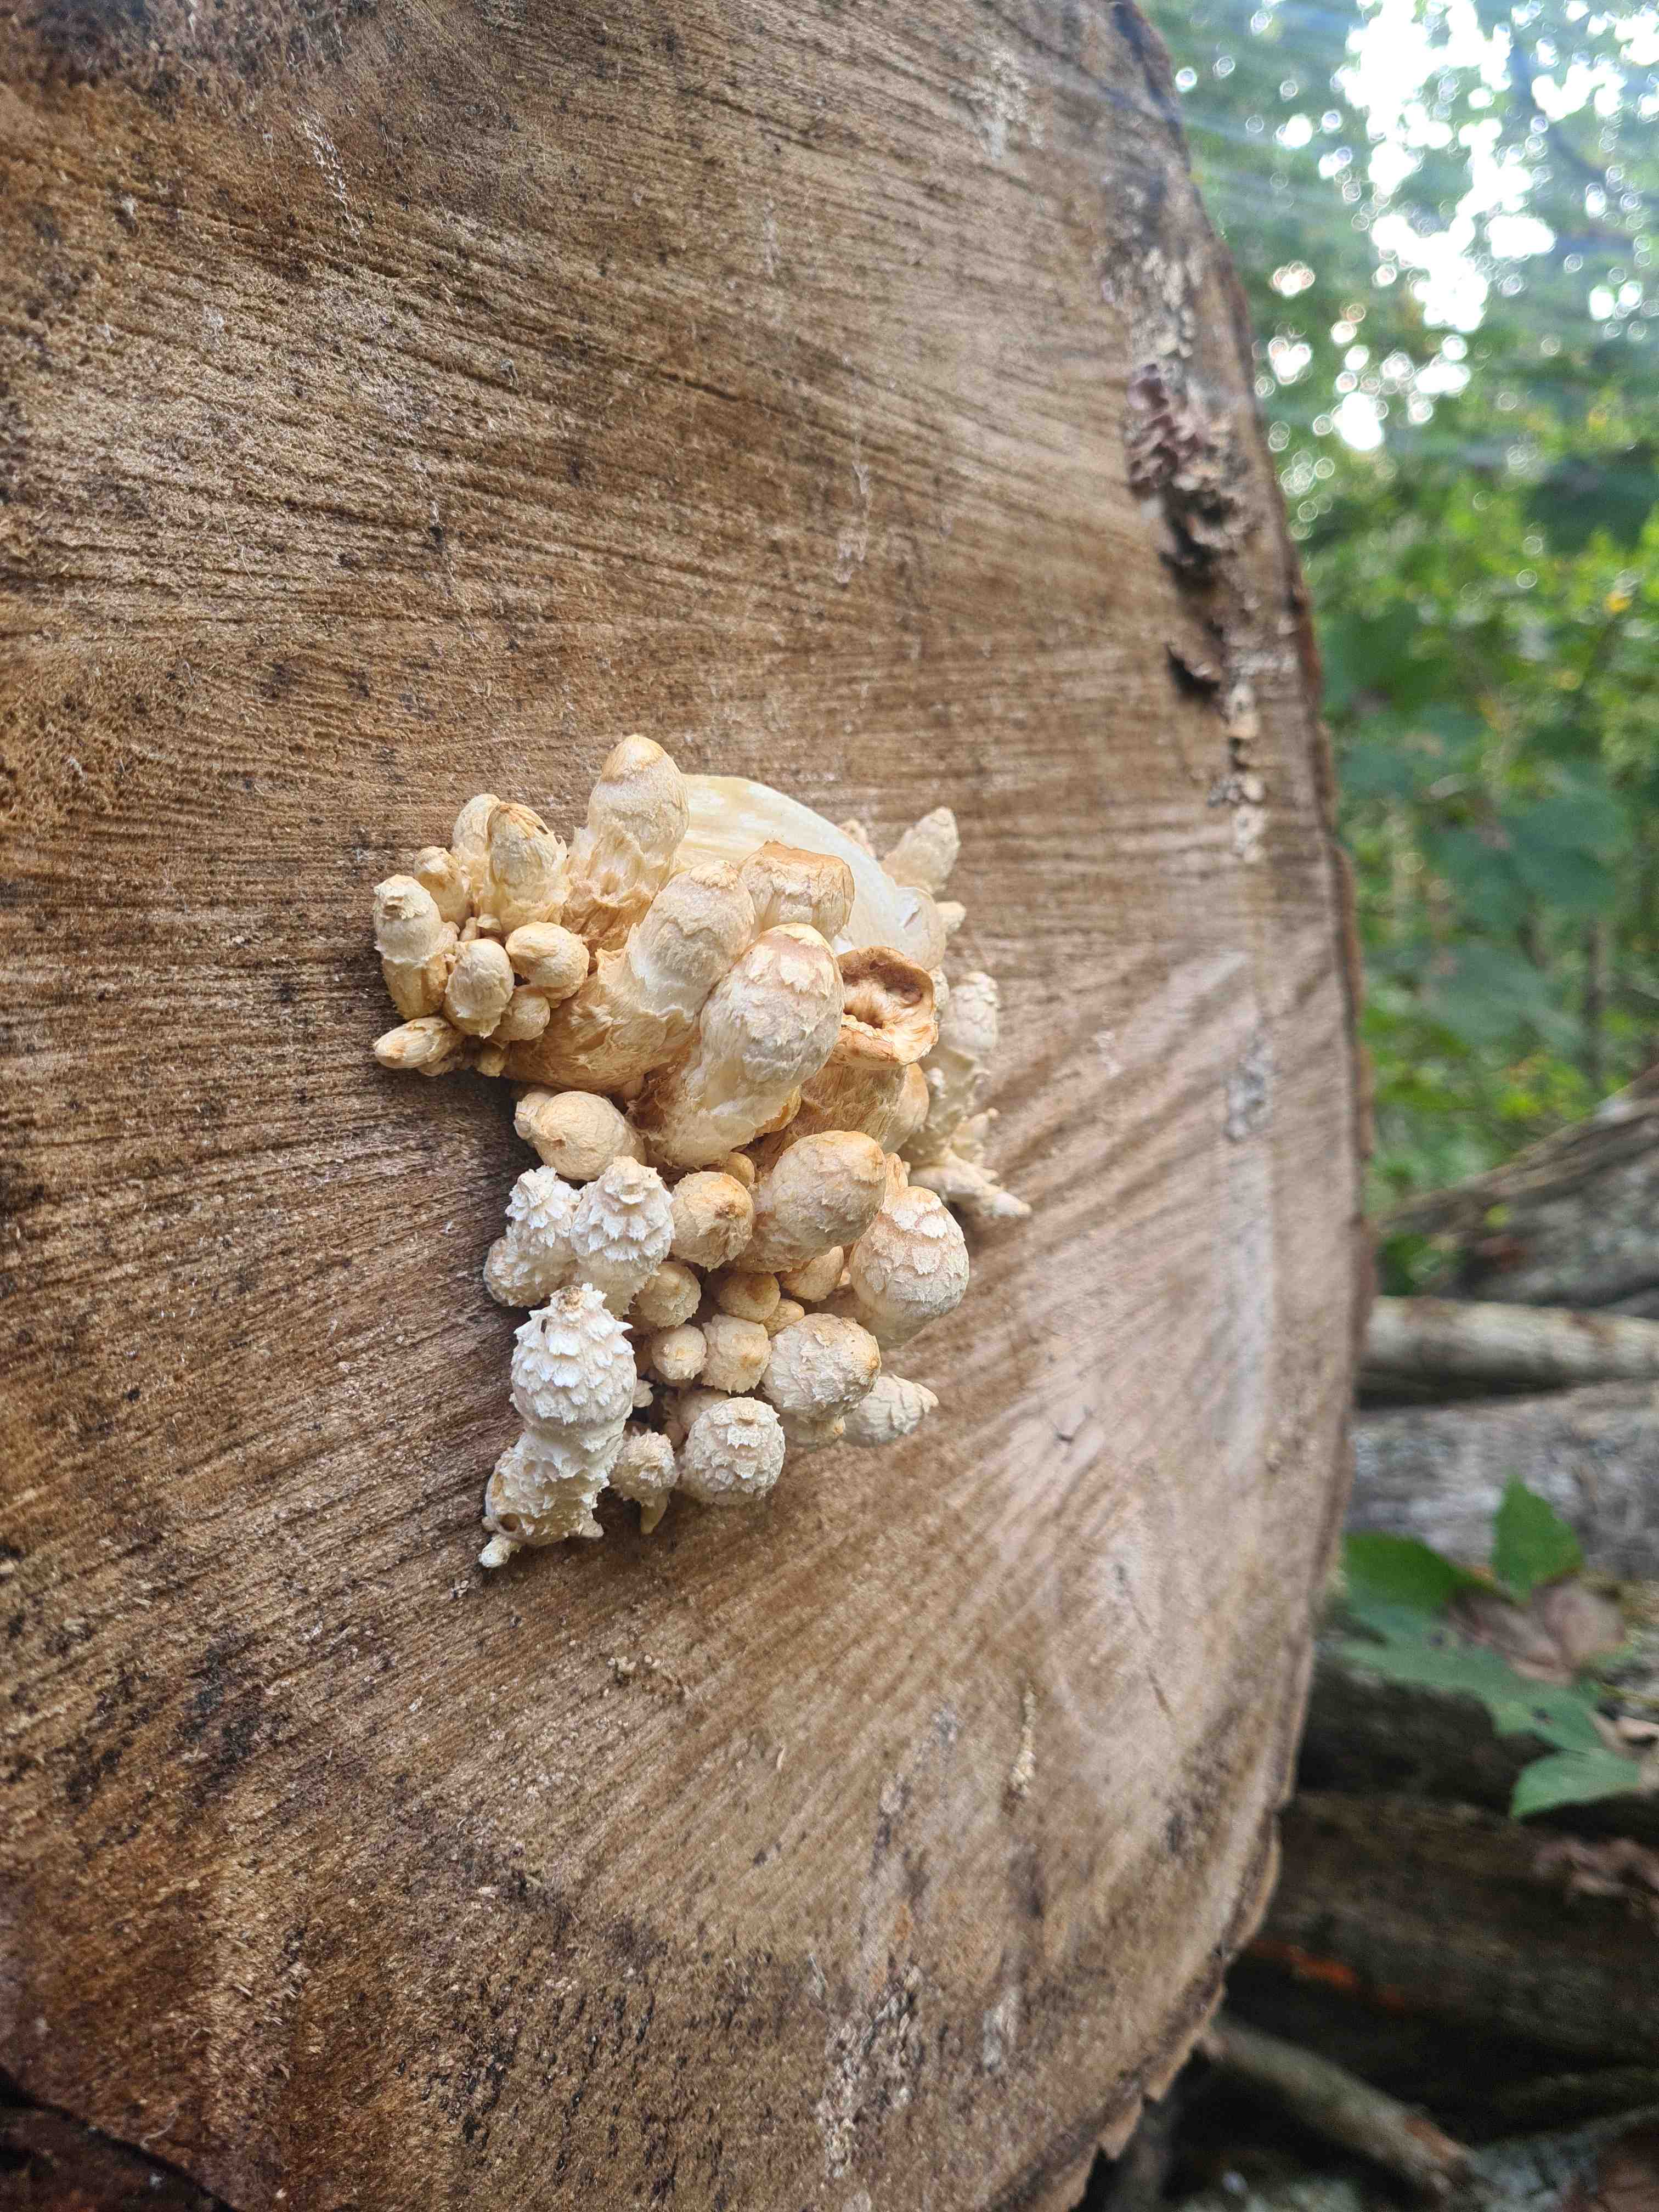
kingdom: Fungi
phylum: Basidiomycota
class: Agaricomycetes
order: Agaricales
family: Strophariaceae
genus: Pholiota
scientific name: Pholiota populnea
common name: poppel-kæmpeskælhat
